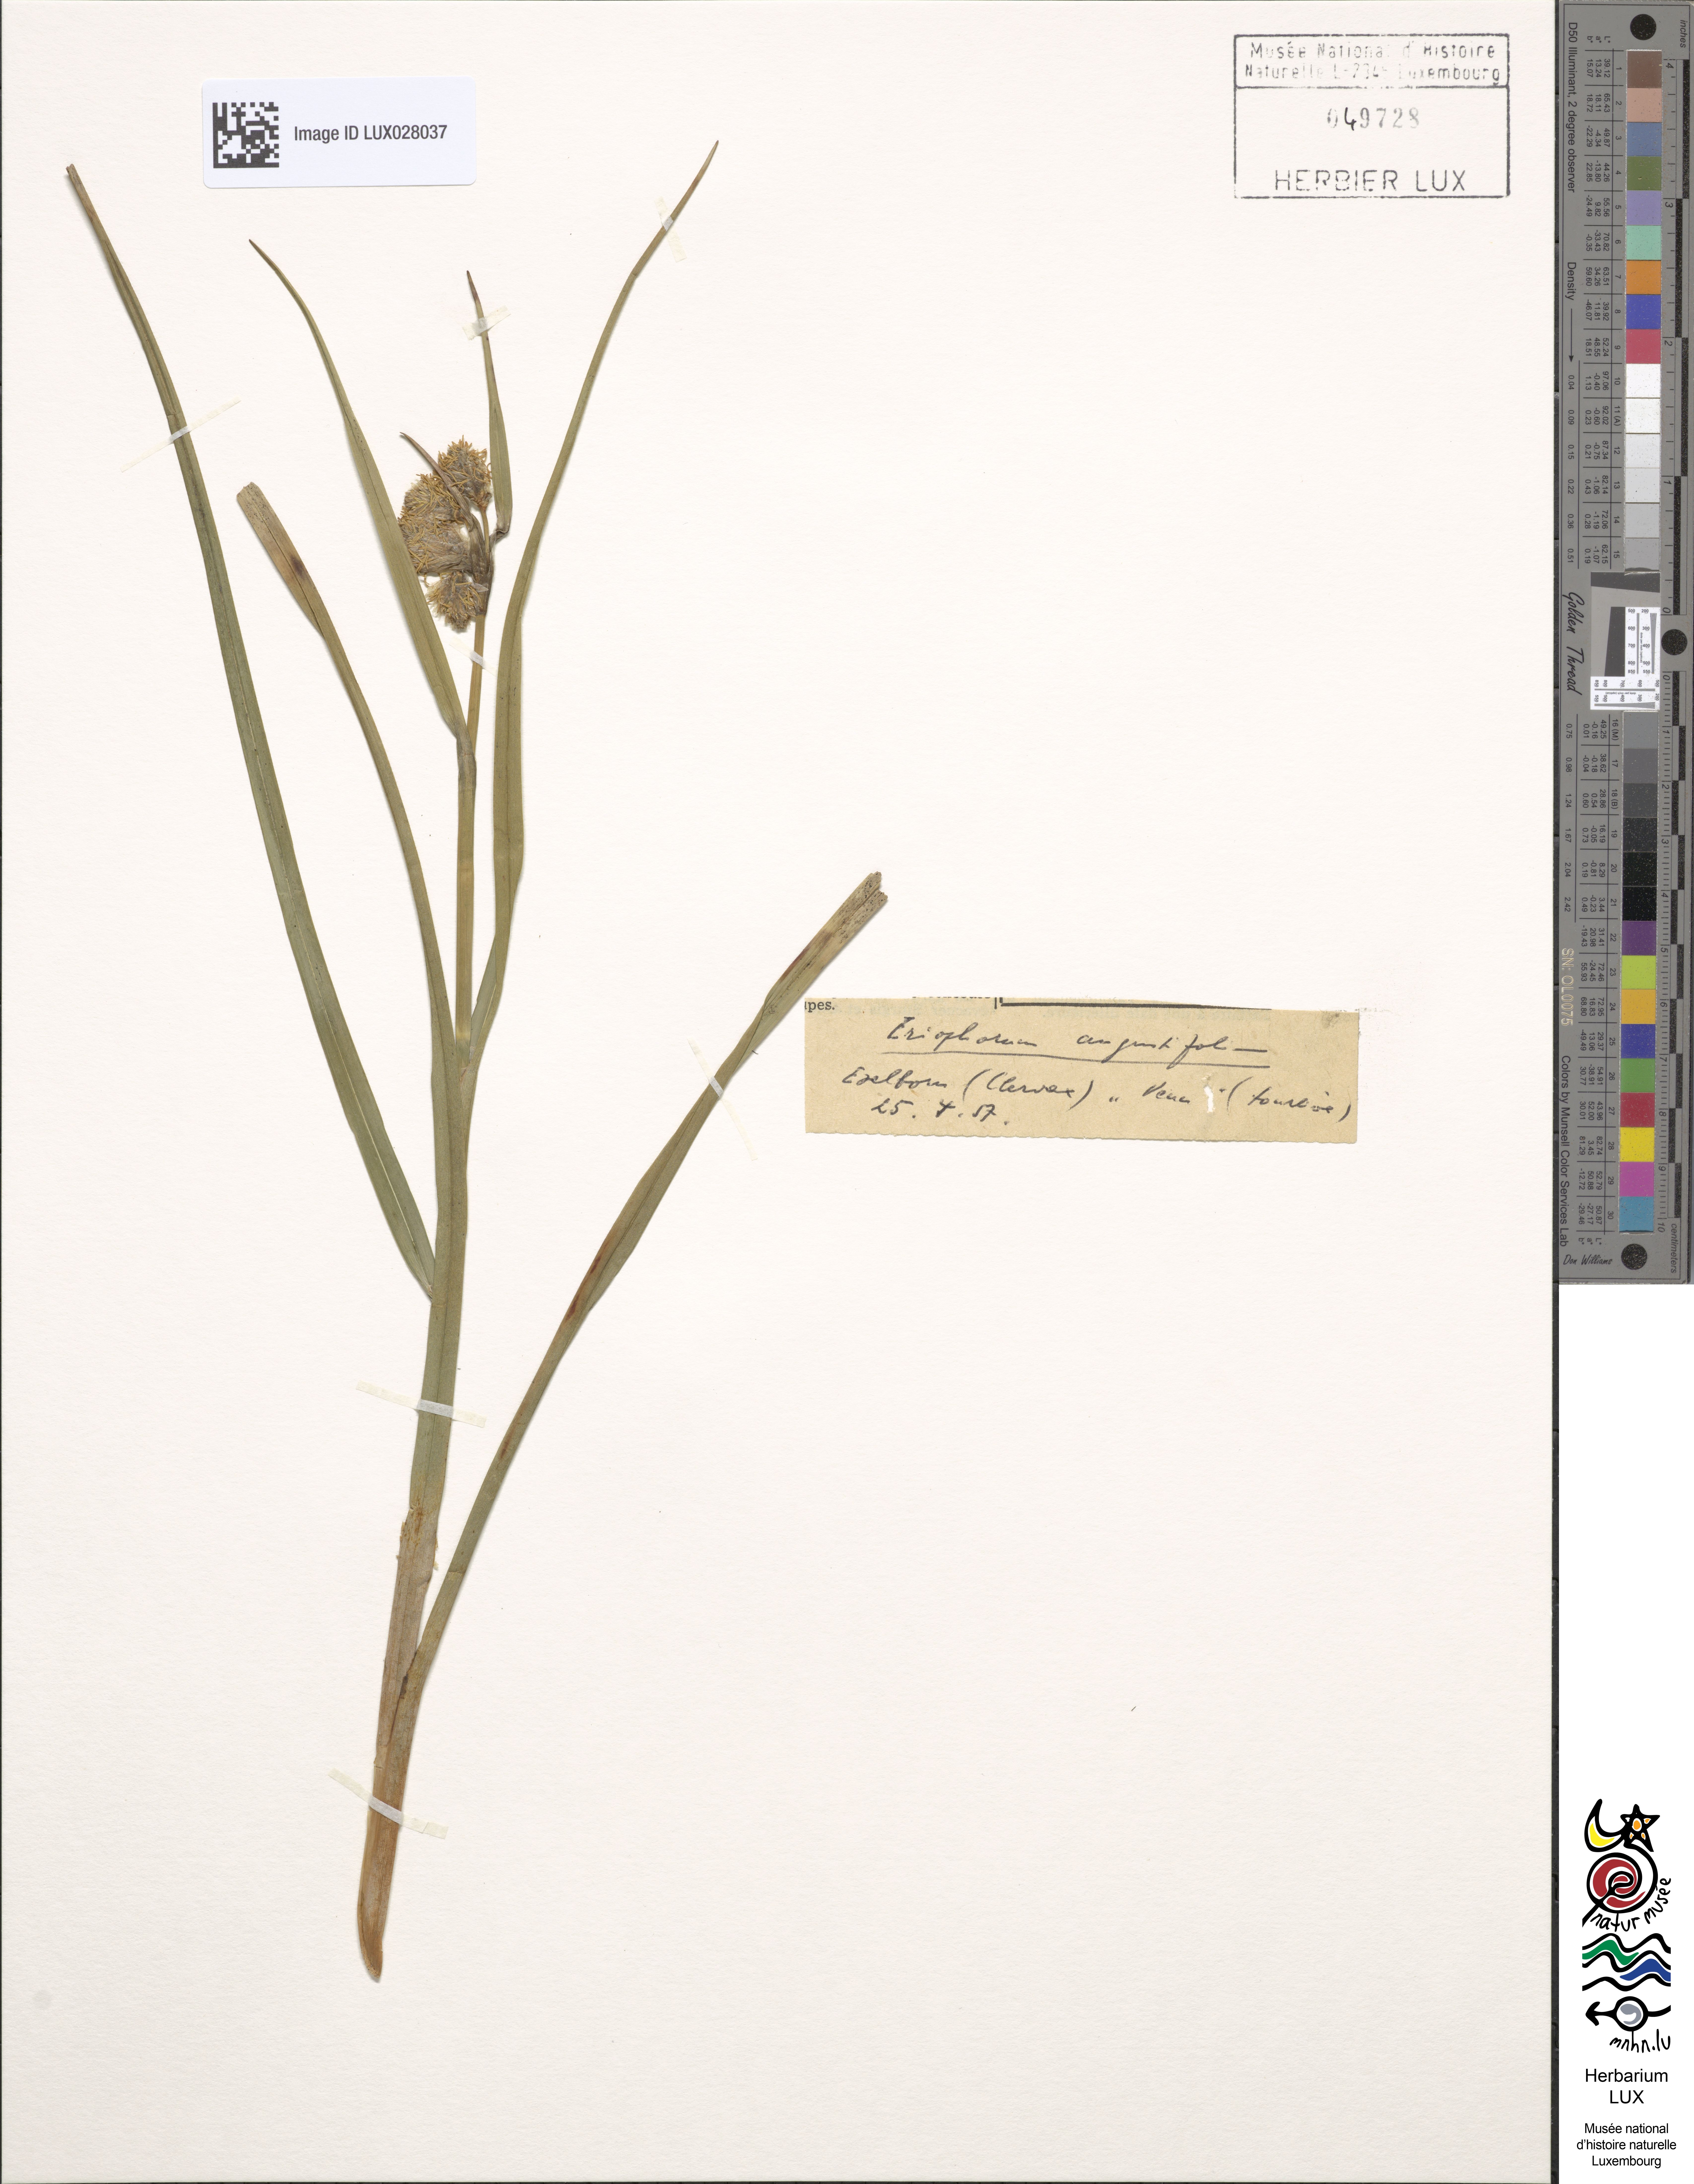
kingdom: Plantae
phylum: Tracheophyta
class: Liliopsida
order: Poales
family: Cyperaceae
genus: Eriophorum
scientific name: Eriophorum angustifolium
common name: Common cottongrass
